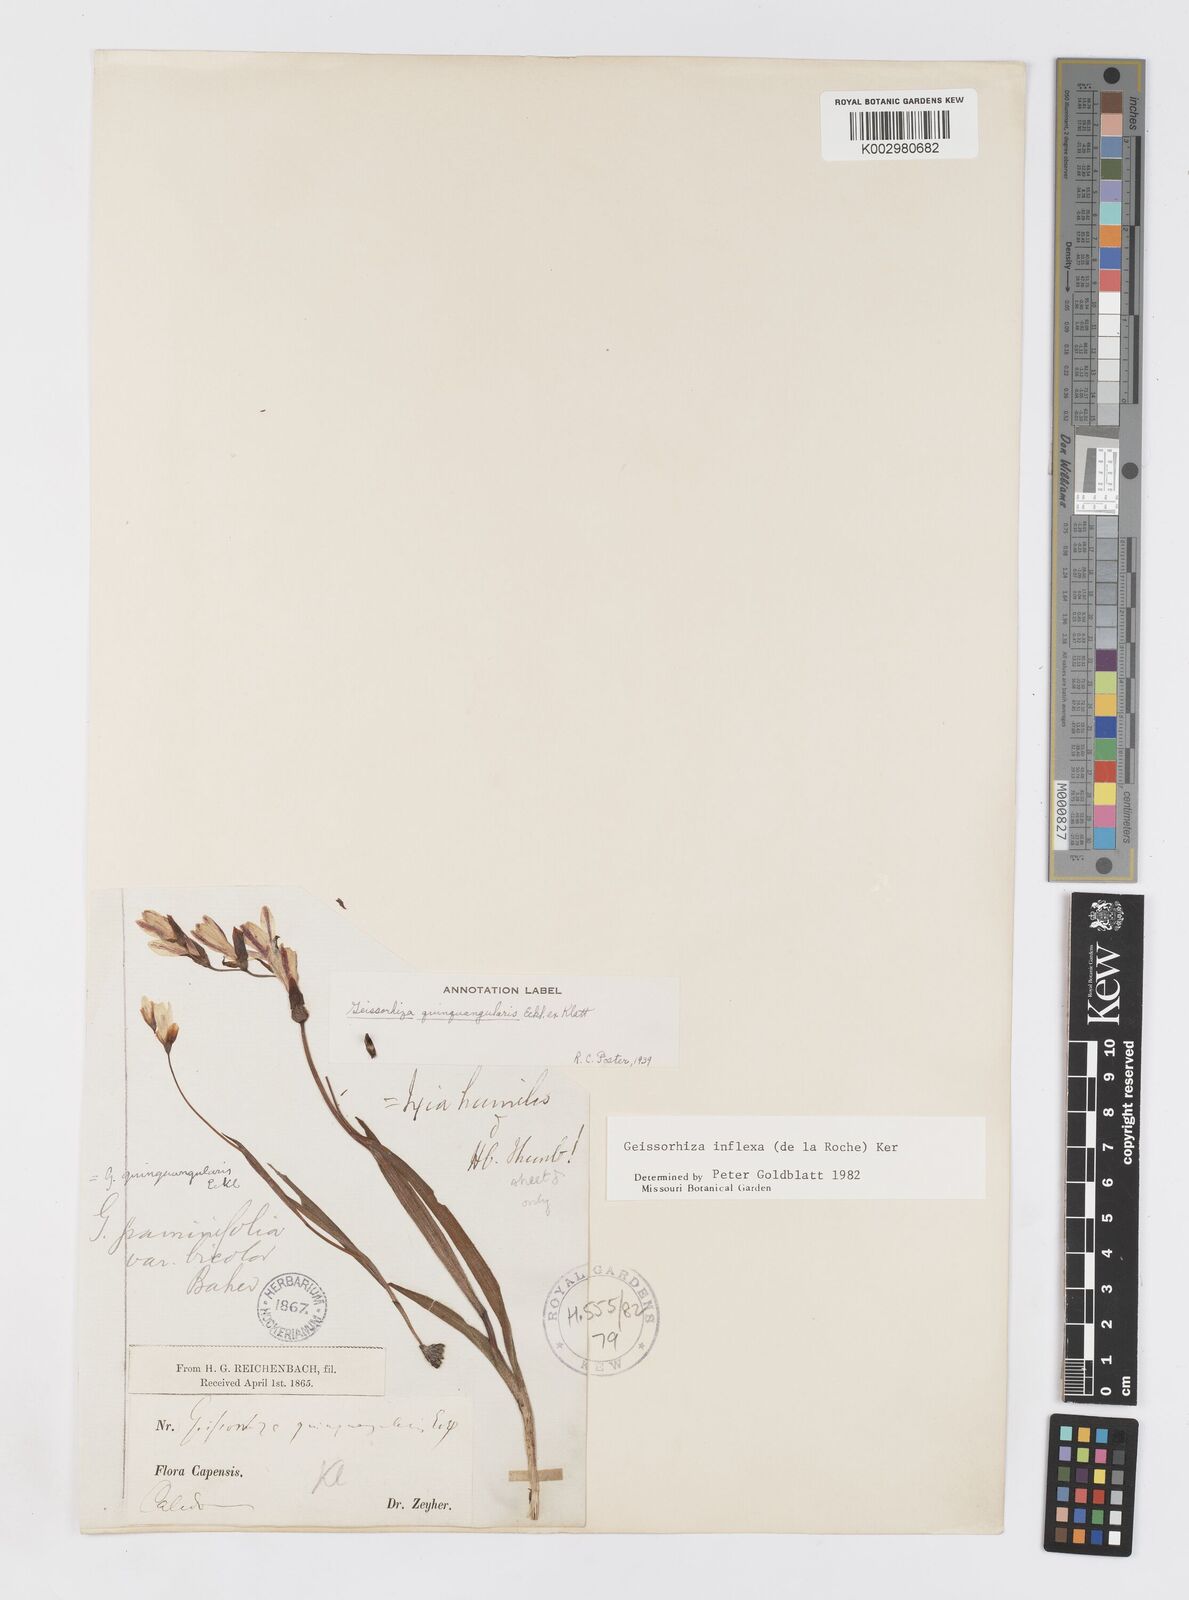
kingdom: Plantae
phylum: Tracheophyta
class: Liliopsida
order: Asparagales
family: Iridaceae
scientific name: Iridaceae
